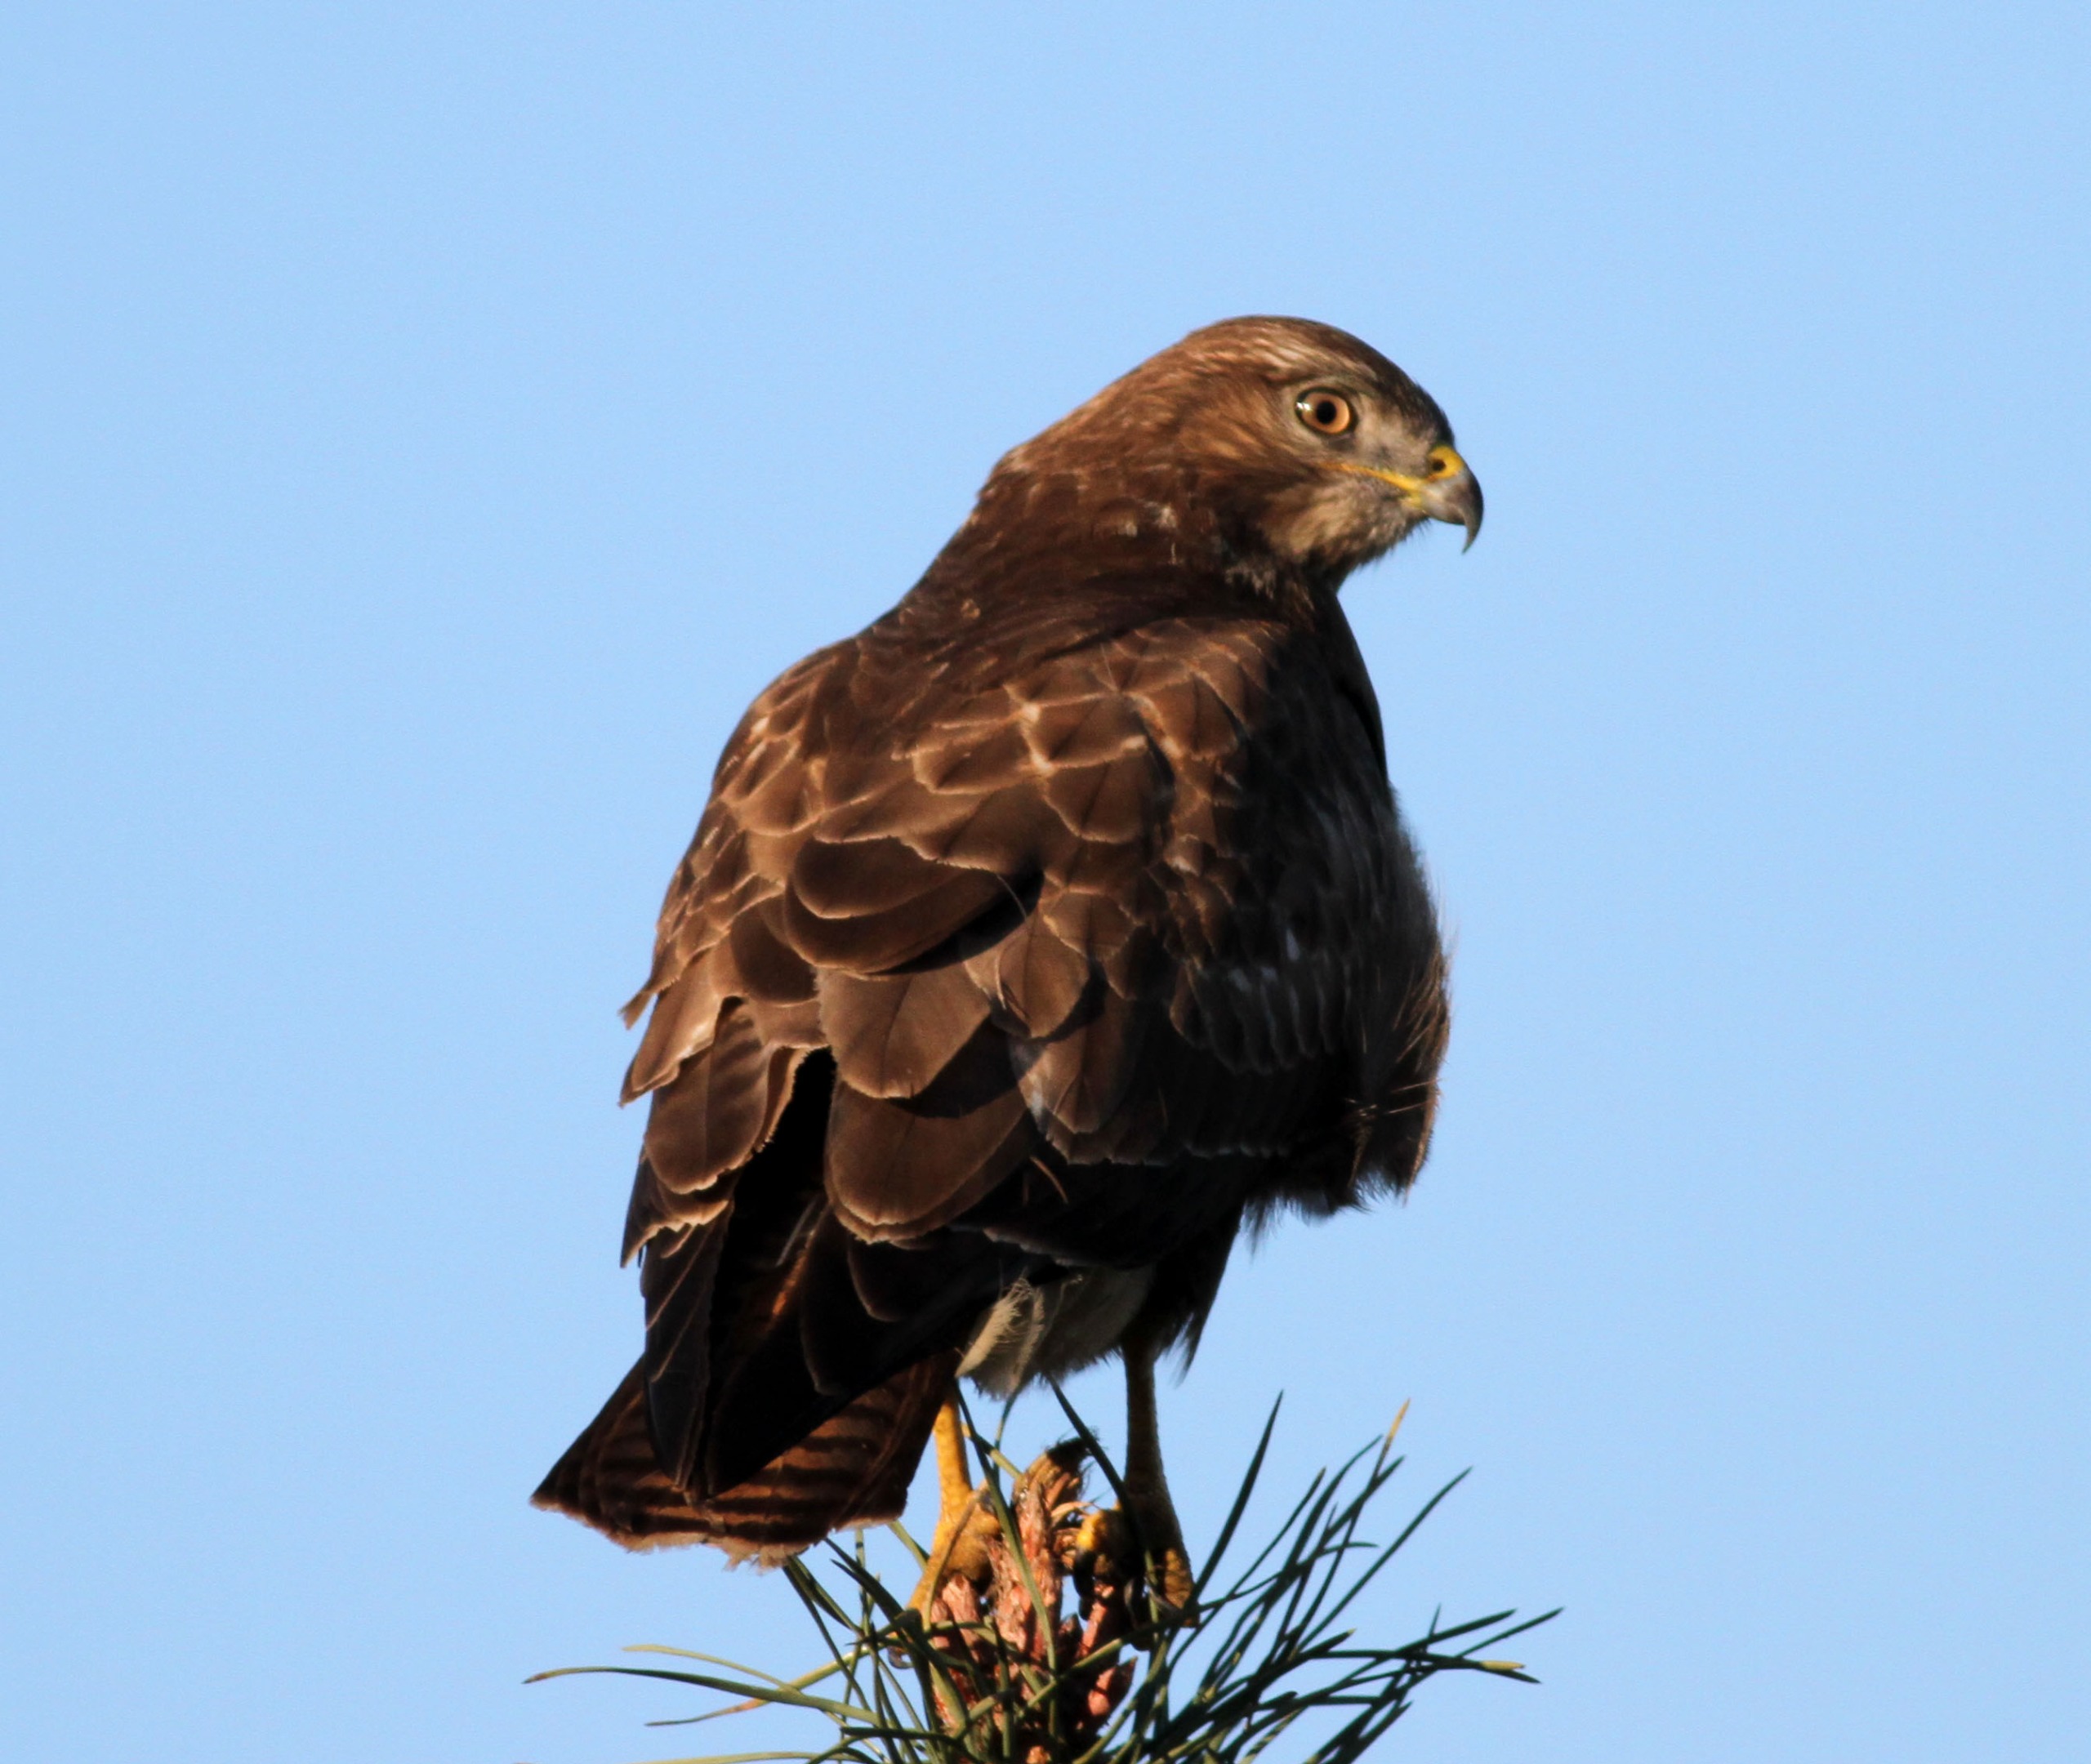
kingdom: Animalia
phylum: Chordata
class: Aves
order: Accipitriformes
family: Accipitridae
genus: Buteo
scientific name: Buteo buteo
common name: Musvåge
